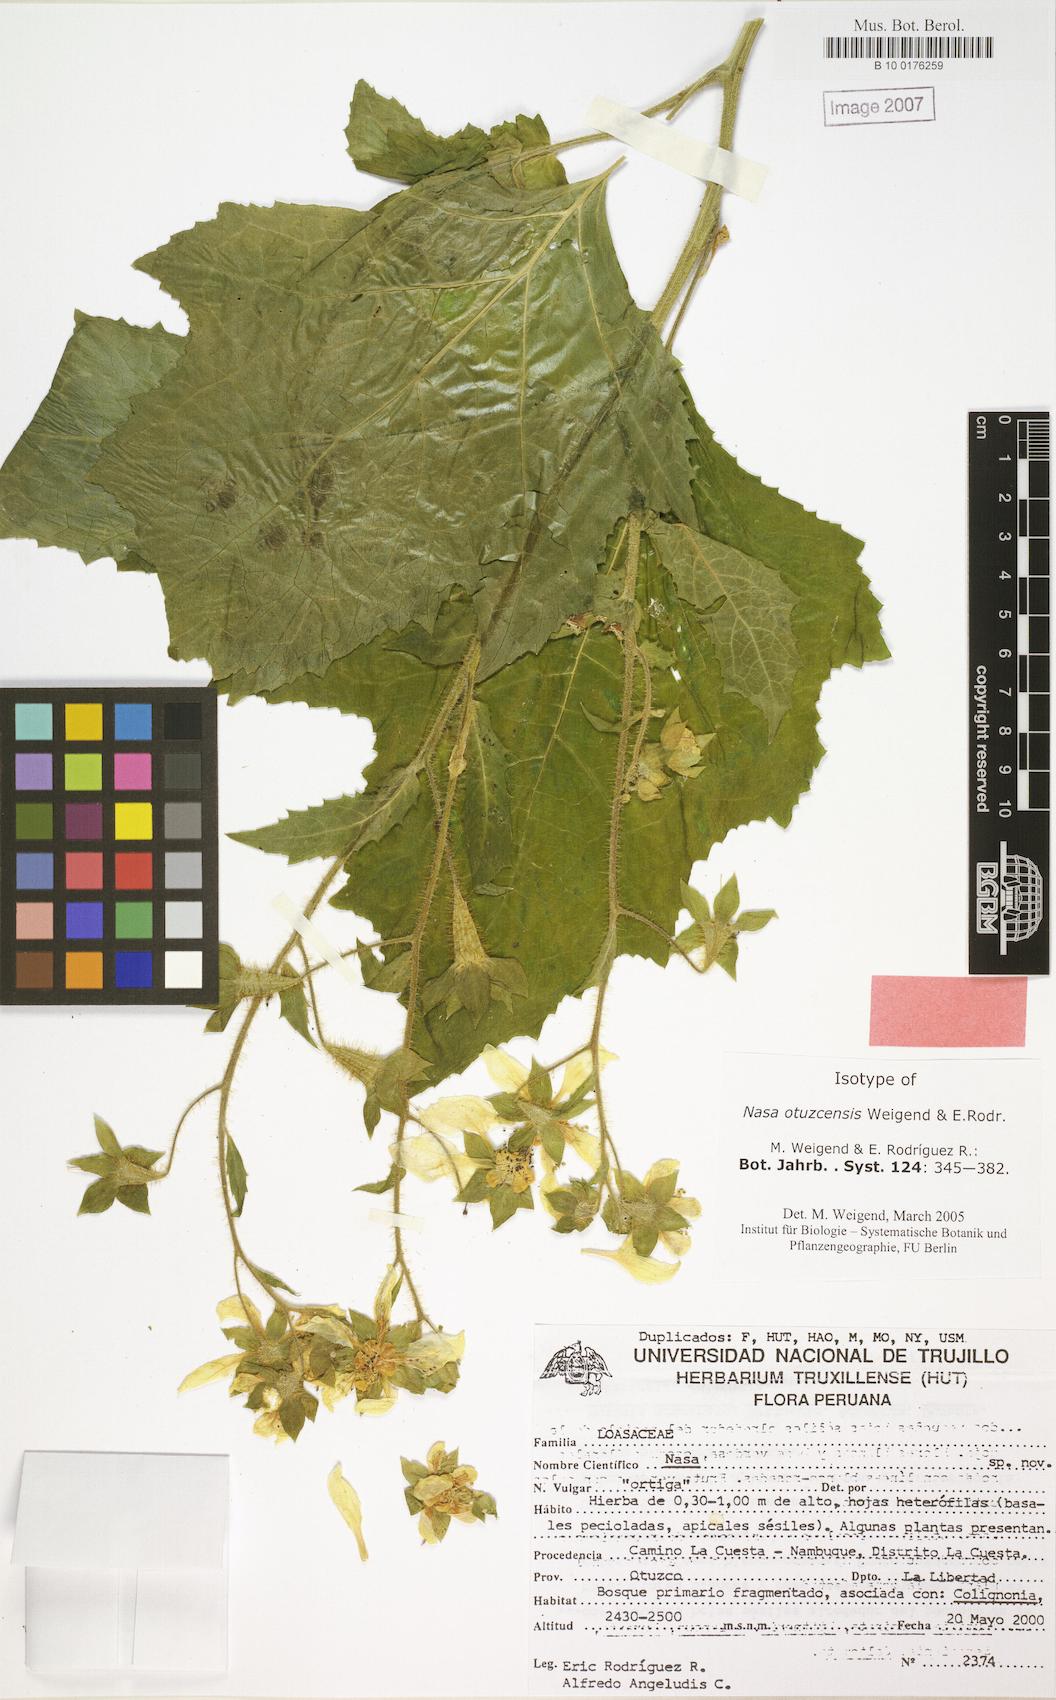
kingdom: Plantae
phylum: Tracheophyta
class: Magnoliopsida
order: Cornales
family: Loasaceae
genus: Nasa
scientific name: Nasa otuzcensis
